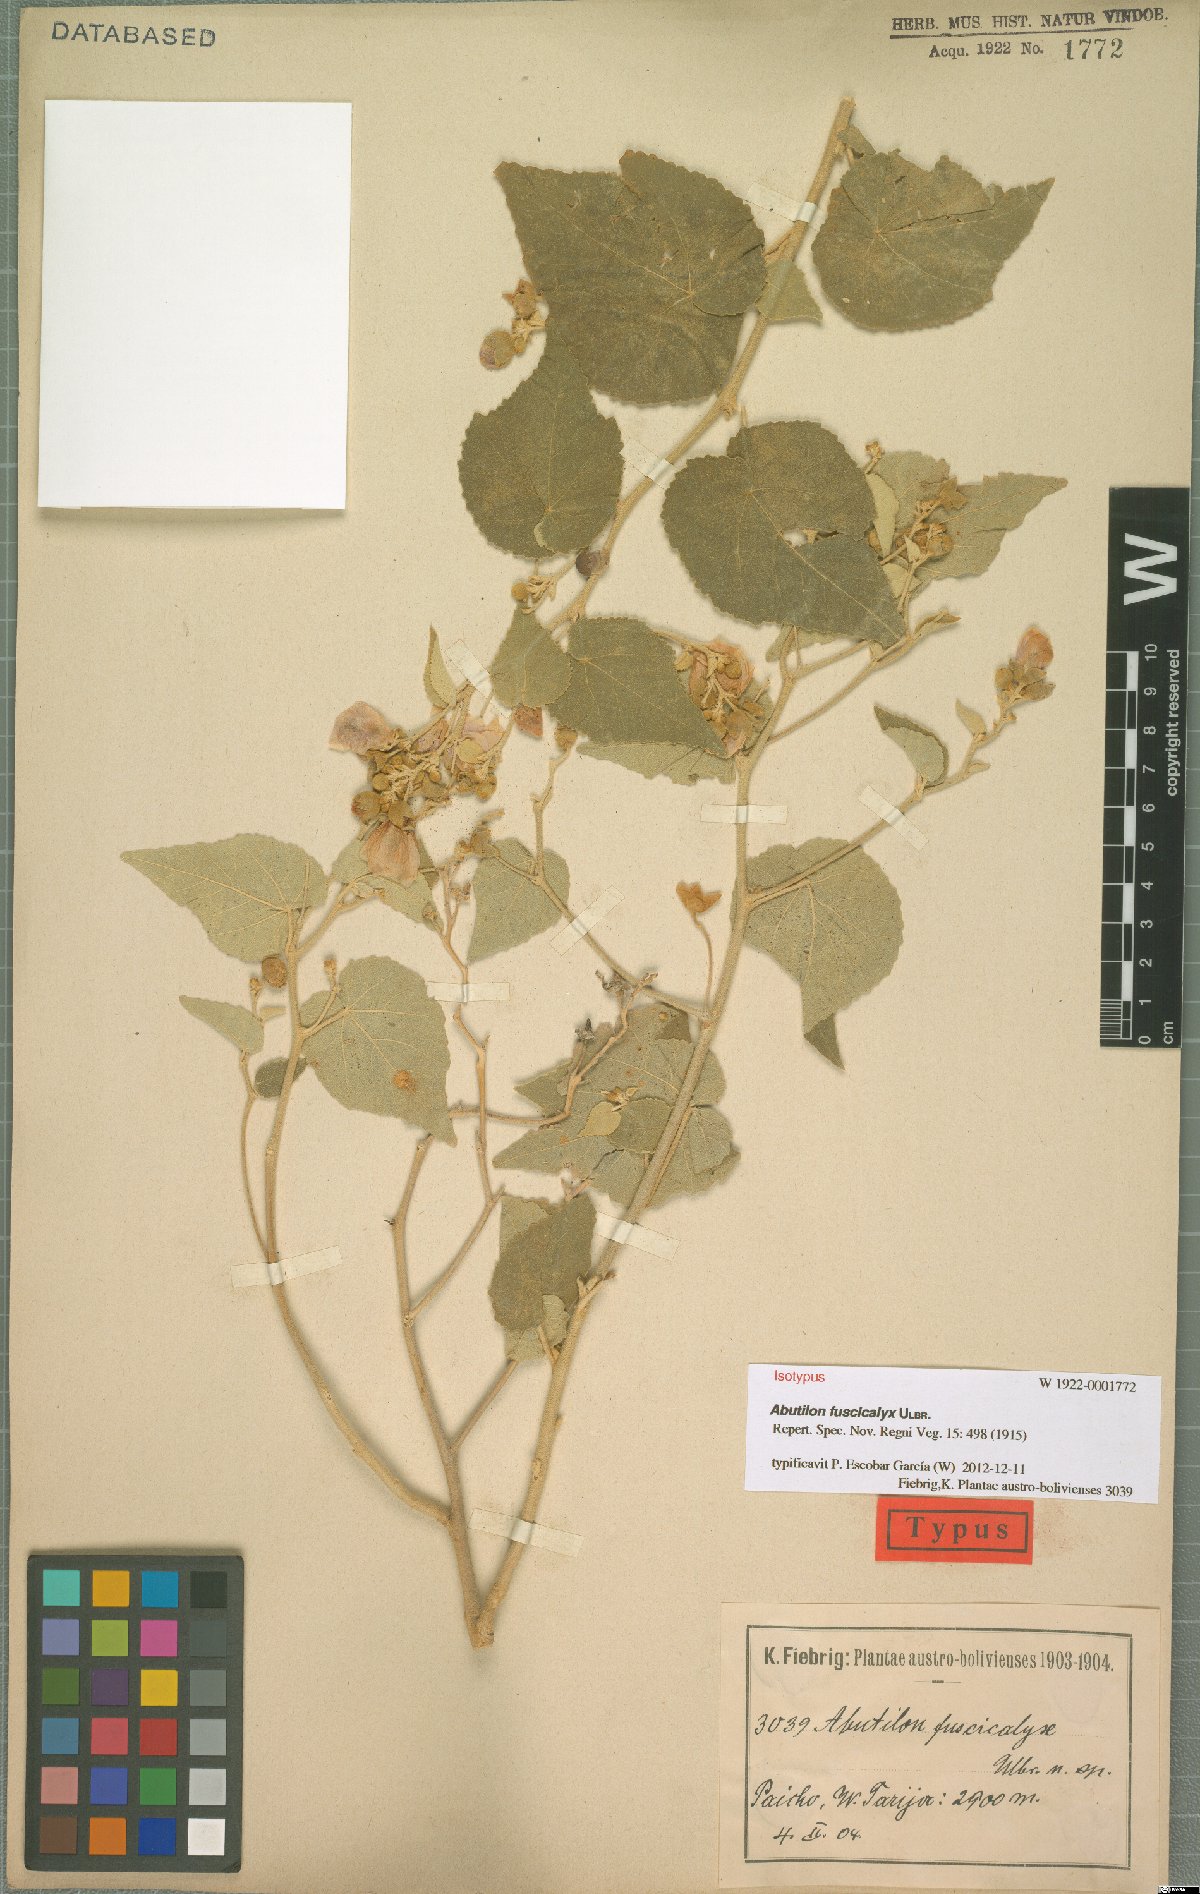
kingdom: Plantae
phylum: Tracheophyta
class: Magnoliopsida
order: Malvales
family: Malvaceae
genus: Abutilon
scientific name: Abutilon fuscicalyx
